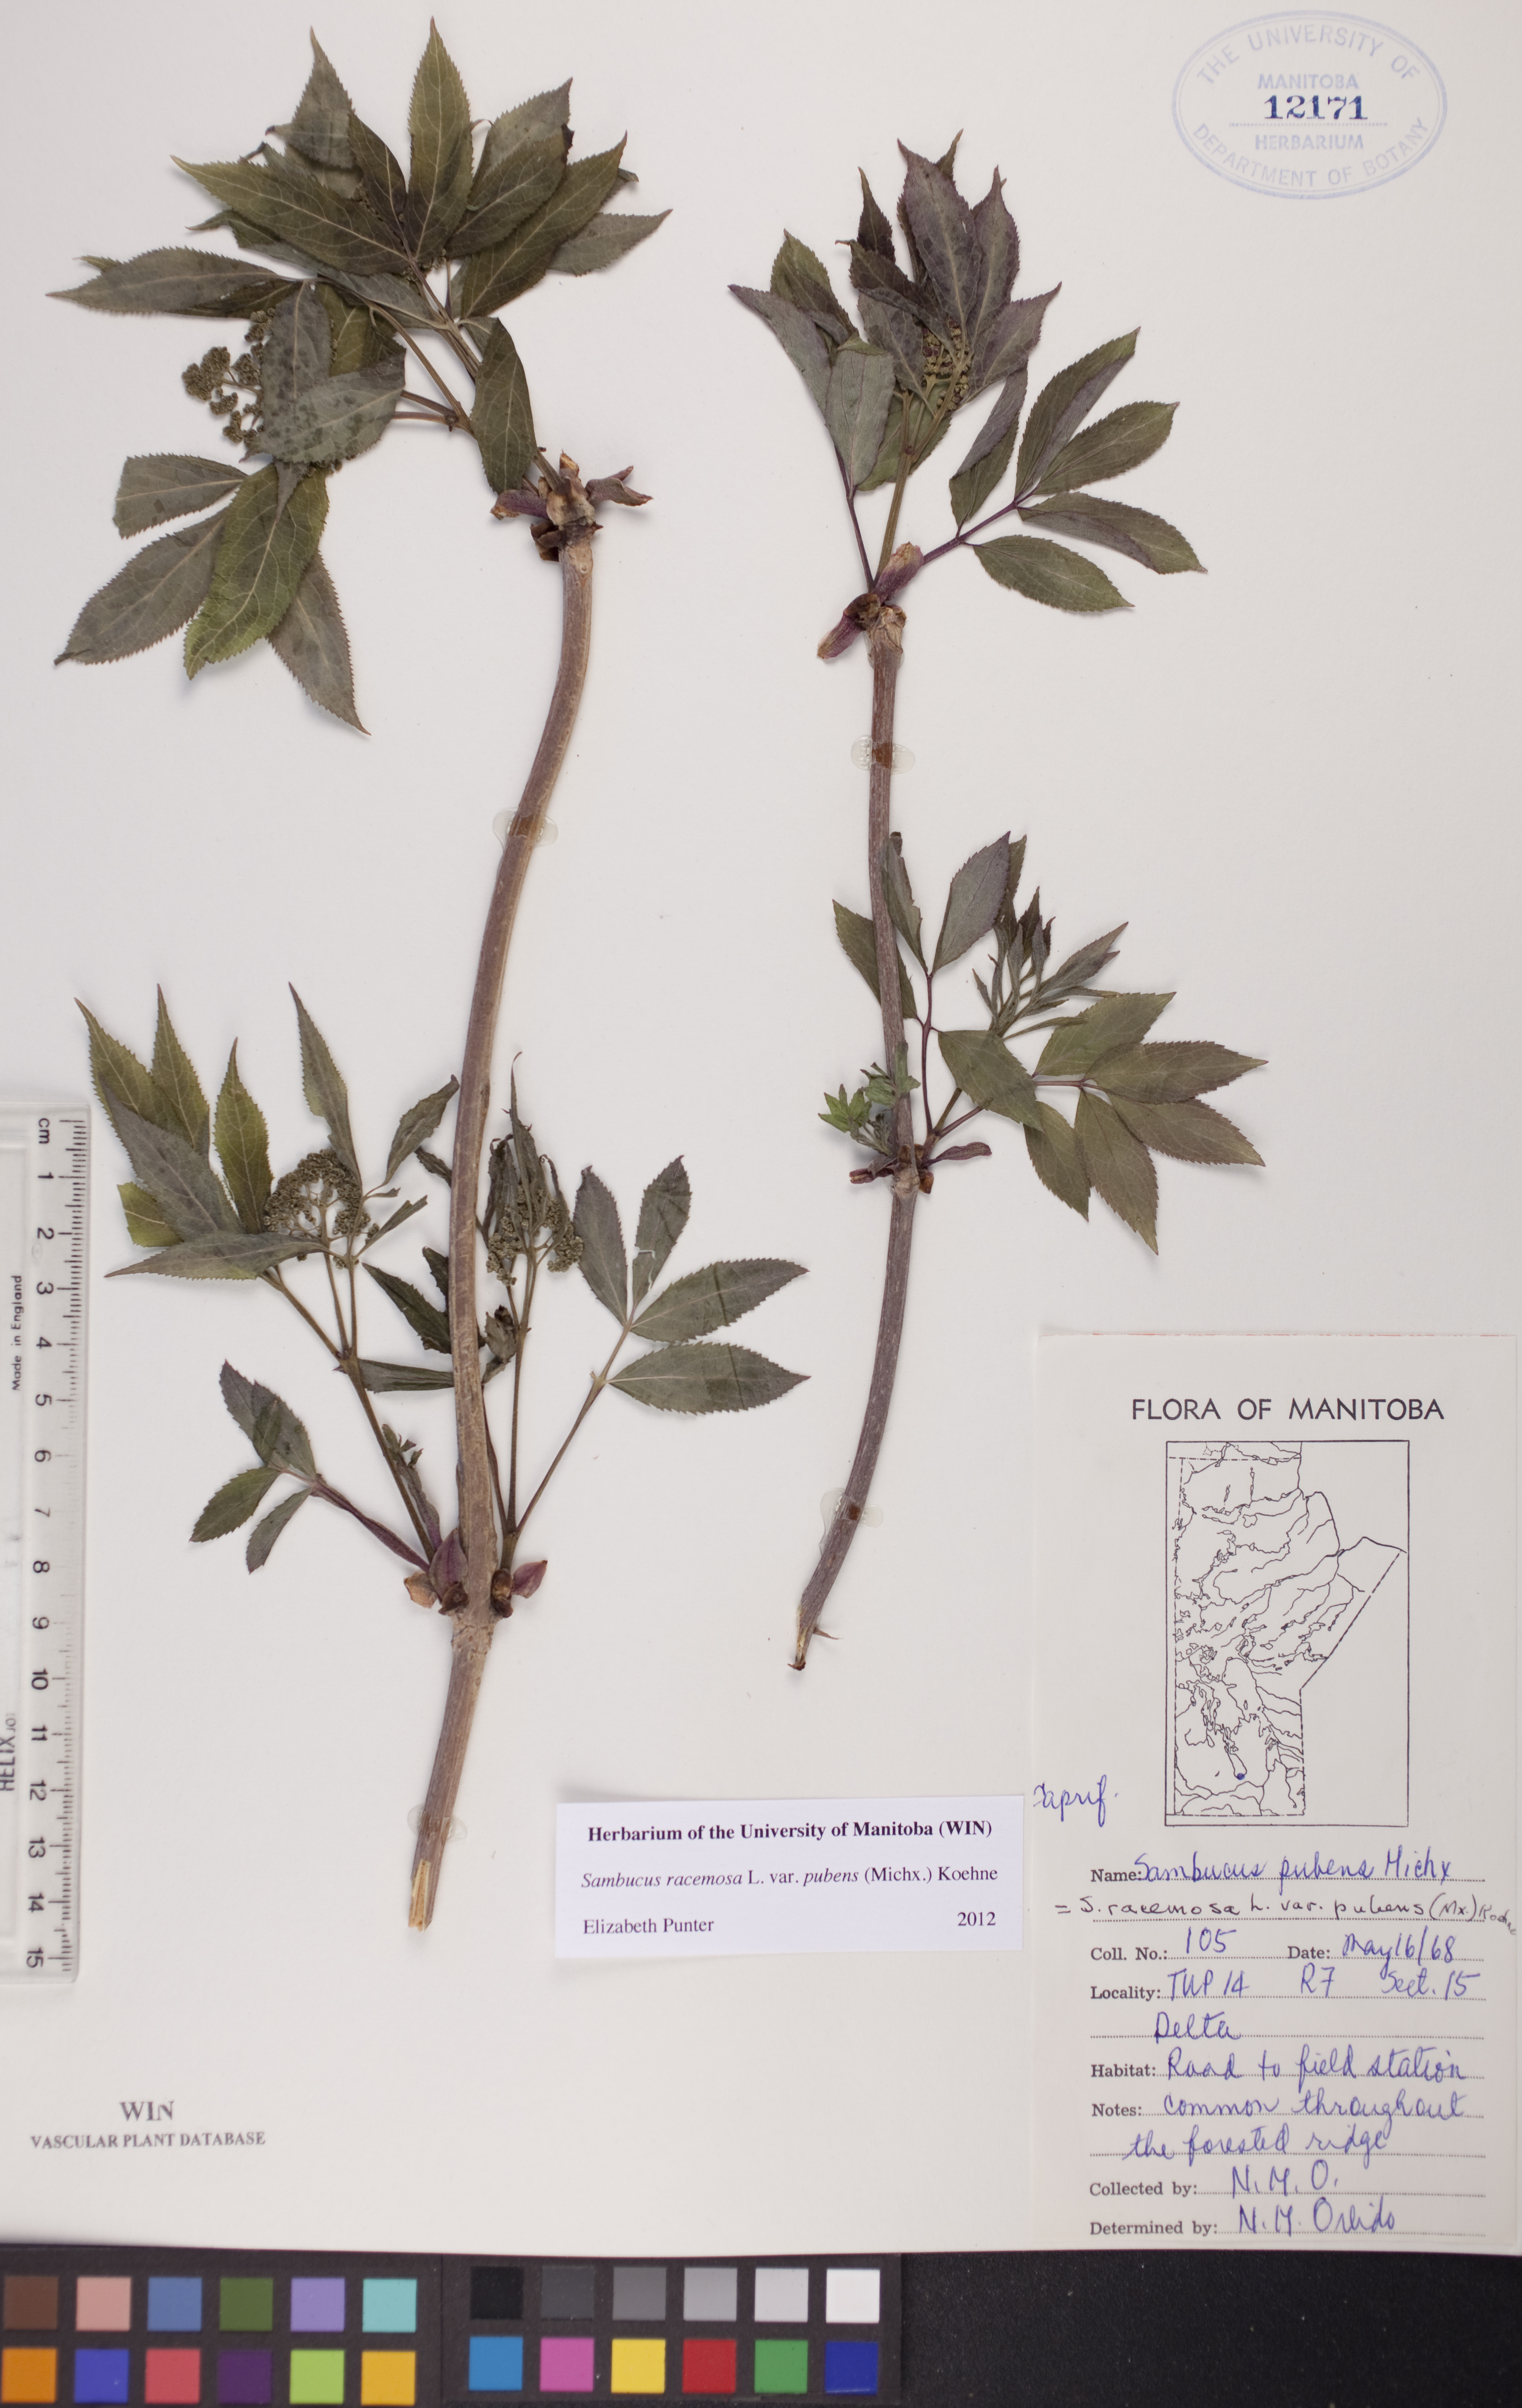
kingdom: Plantae
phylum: Tracheophyta
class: Magnoliopsida
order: Dipsacales
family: Viburnaceae
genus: Sambucus
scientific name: Sambucus racemosa
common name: Red-berried elder
